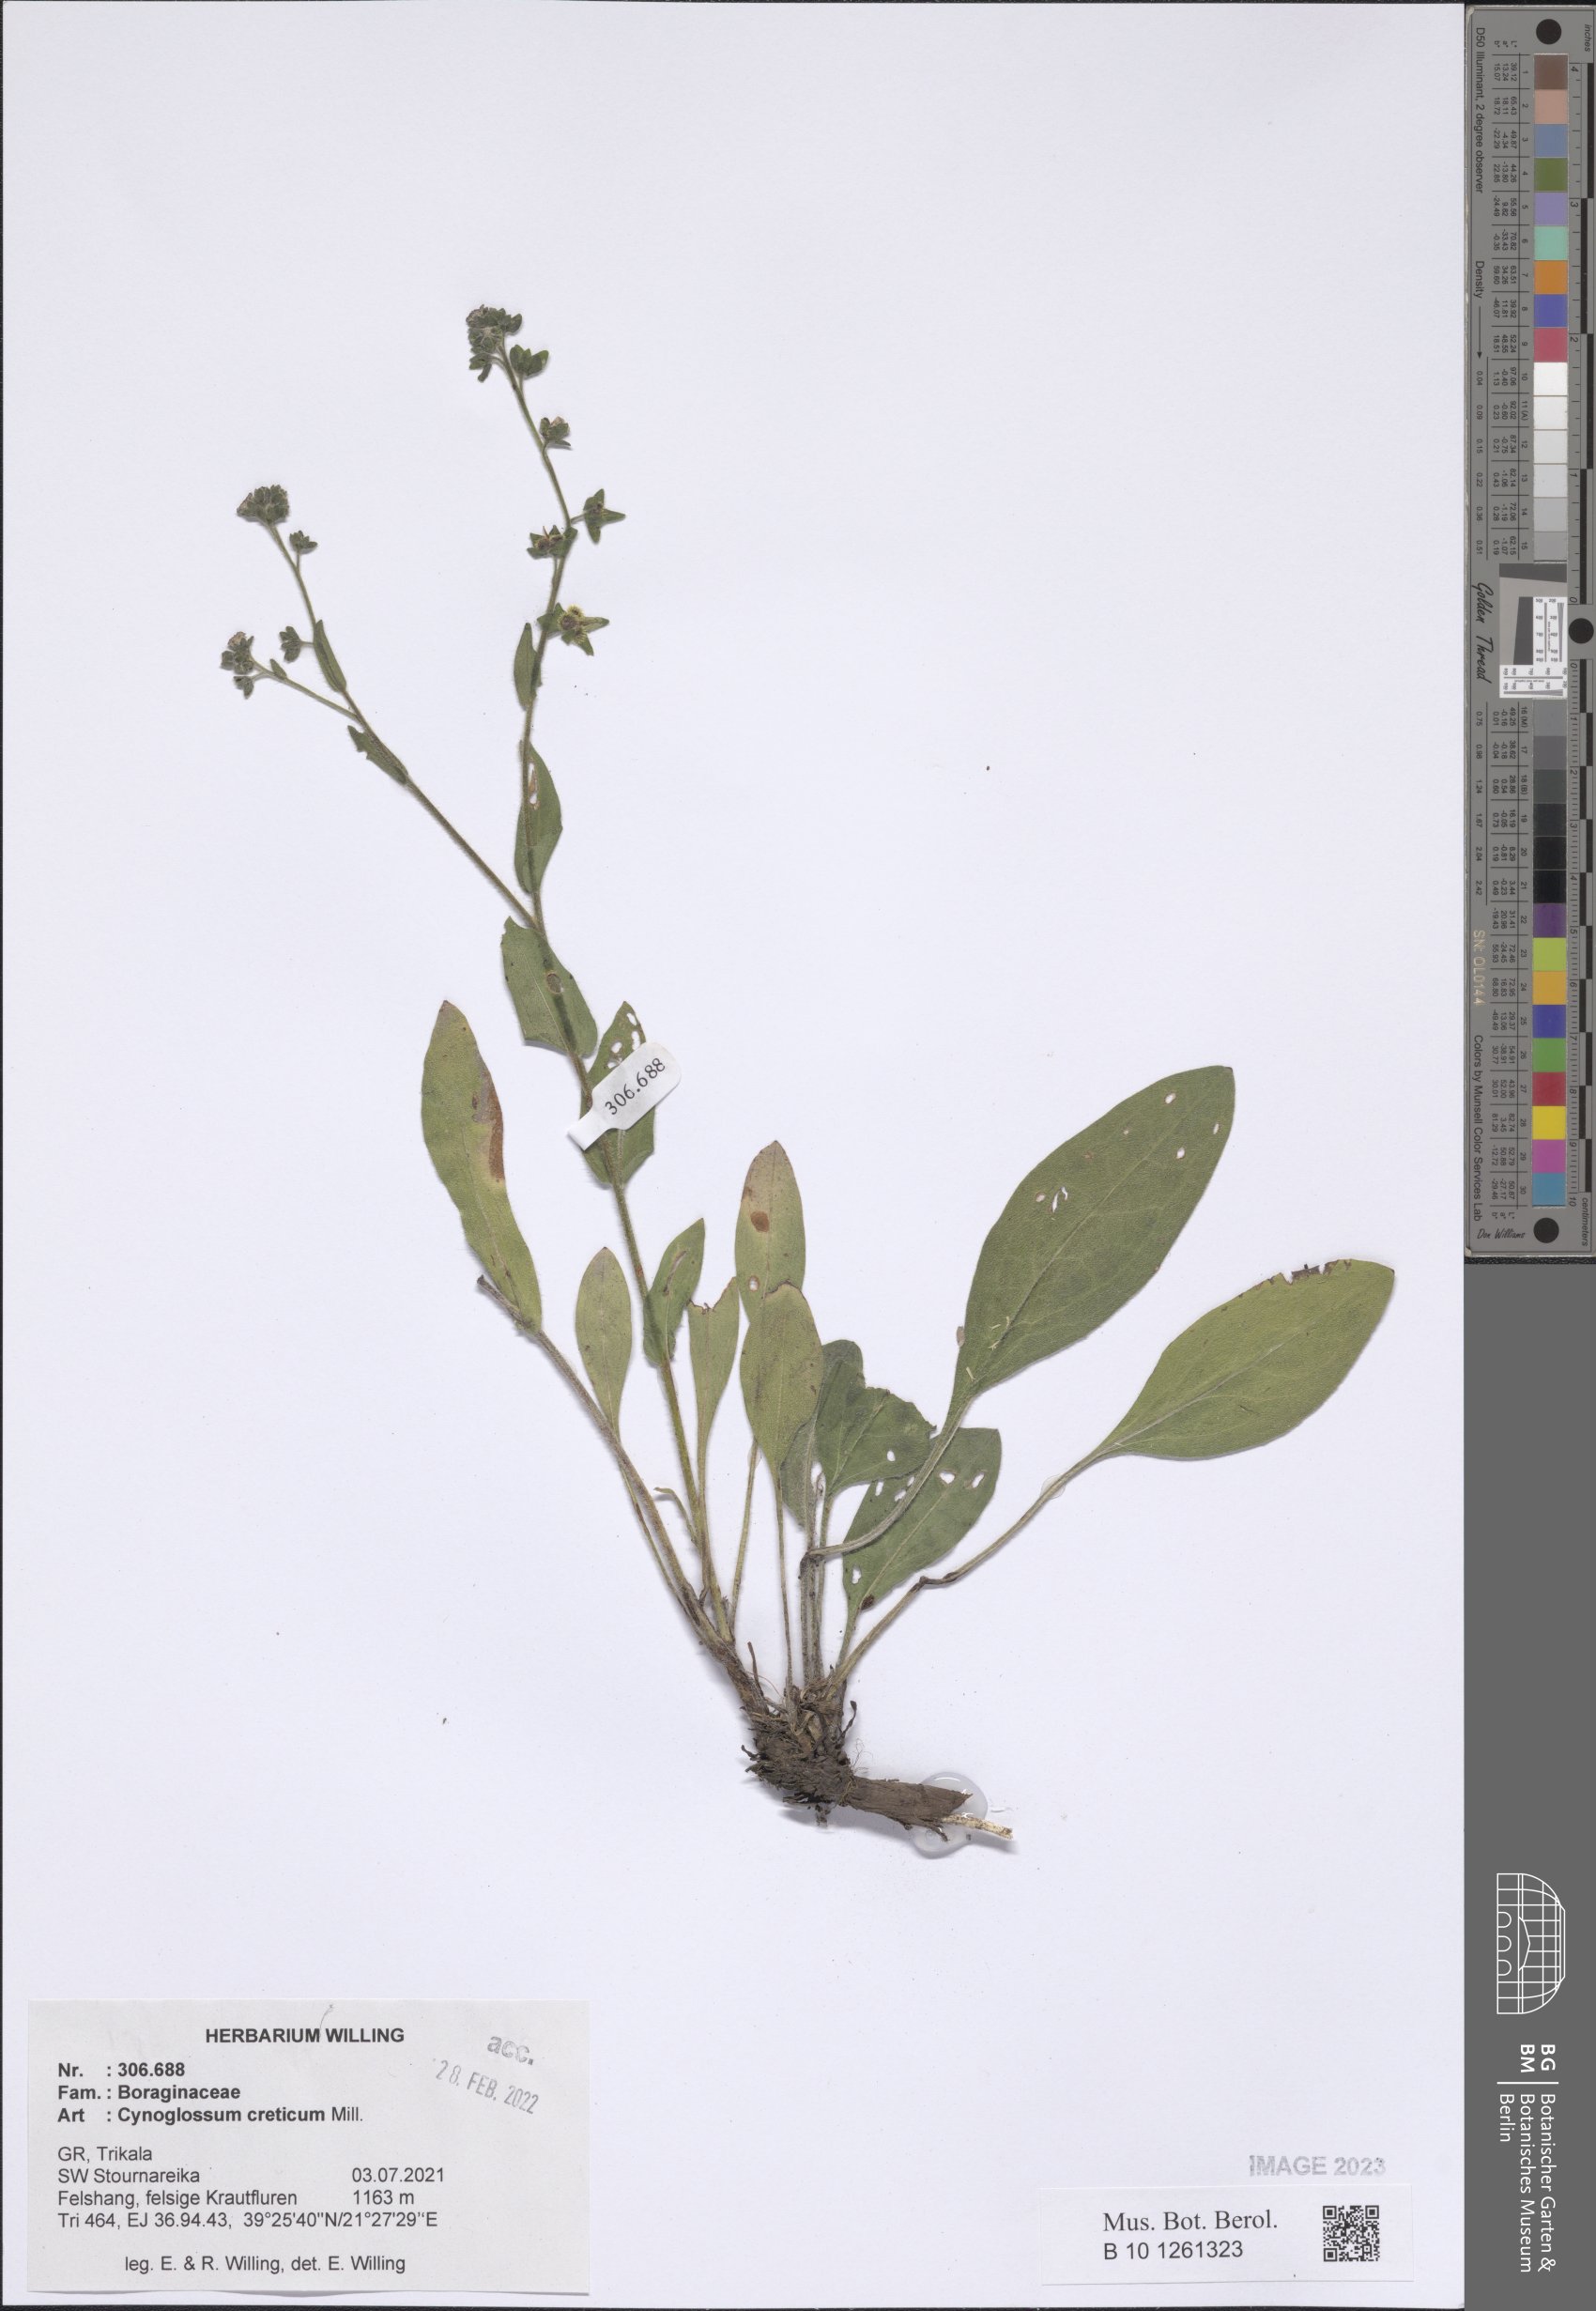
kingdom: Plantae
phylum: Tracheophyta
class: Magnoliopsida
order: Boraginales
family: Boraginaceae
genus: Cynoglossum
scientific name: Cynoglossum creticum
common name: Blue hound's tongue
